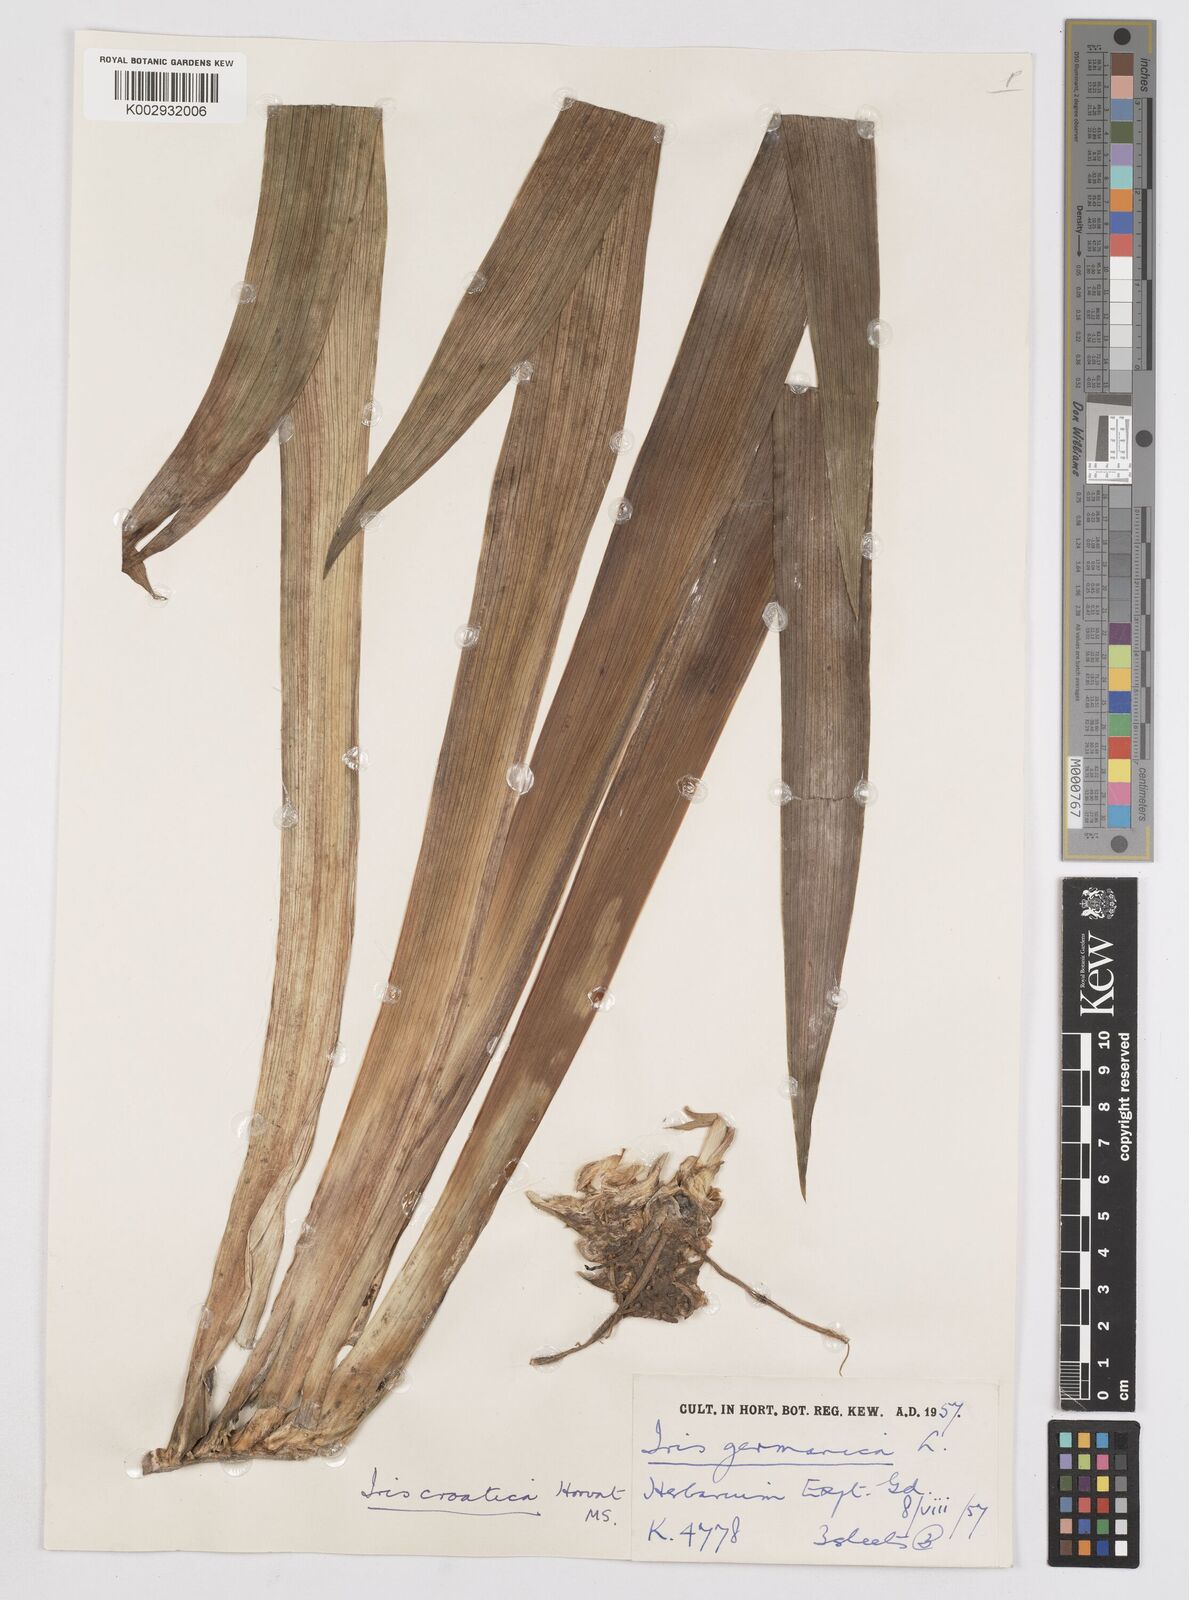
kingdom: Plantae
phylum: Tracheophyta
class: Liliopsida
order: Asparagales
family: Iridaceae
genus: Iris
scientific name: Iris germanica
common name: German iris
